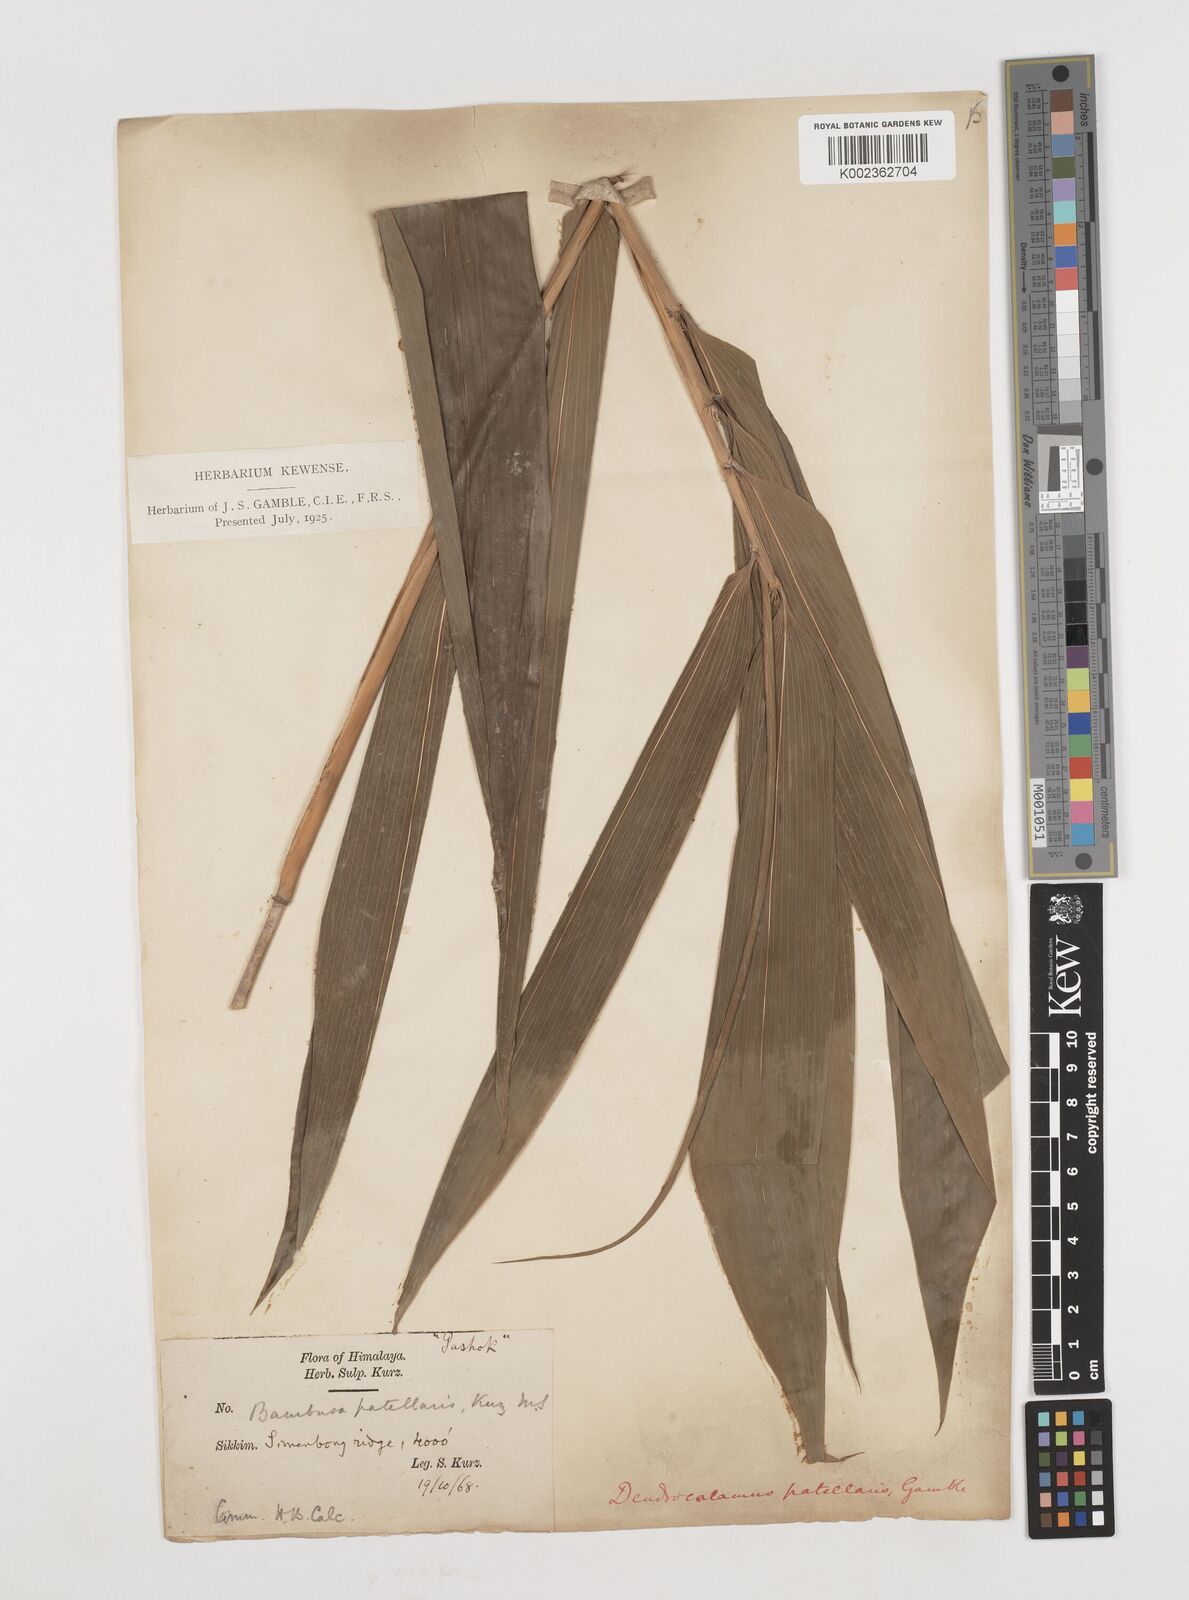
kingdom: Plantae
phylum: Tracheophyta
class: Liliopsida
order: Poales
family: Poaceae
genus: Ampelocalamus
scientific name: Ampelocalamus patellaris
